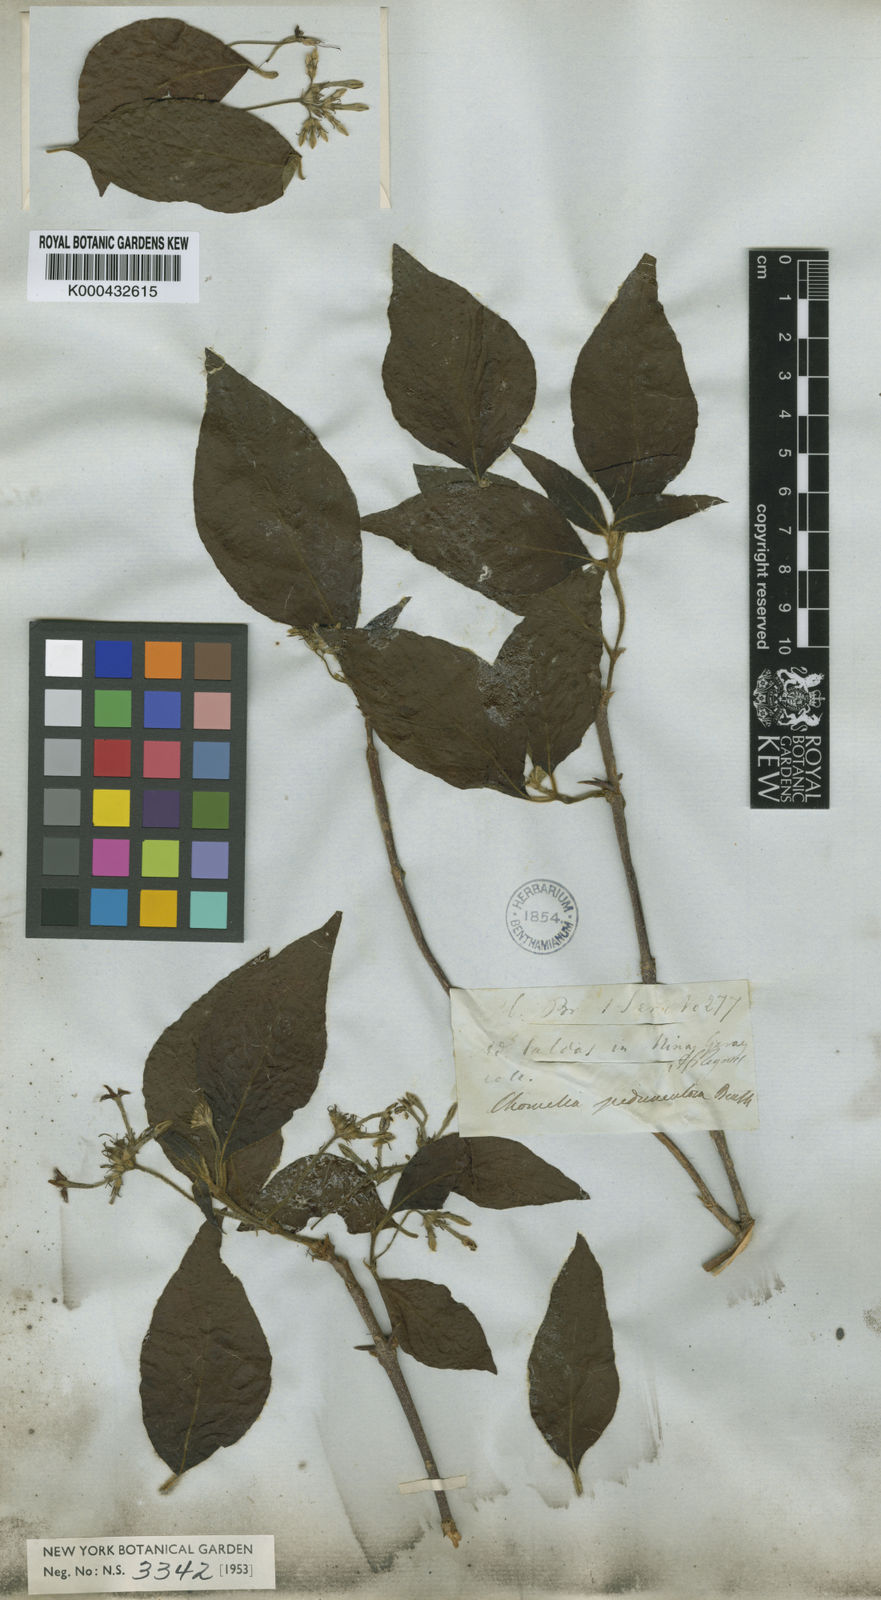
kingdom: Plantae
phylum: Tracheophyta
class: Magnoliopsida
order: Gentianales
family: Rubiaceae
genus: Chomelia
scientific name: Chomelia pedunculosa
